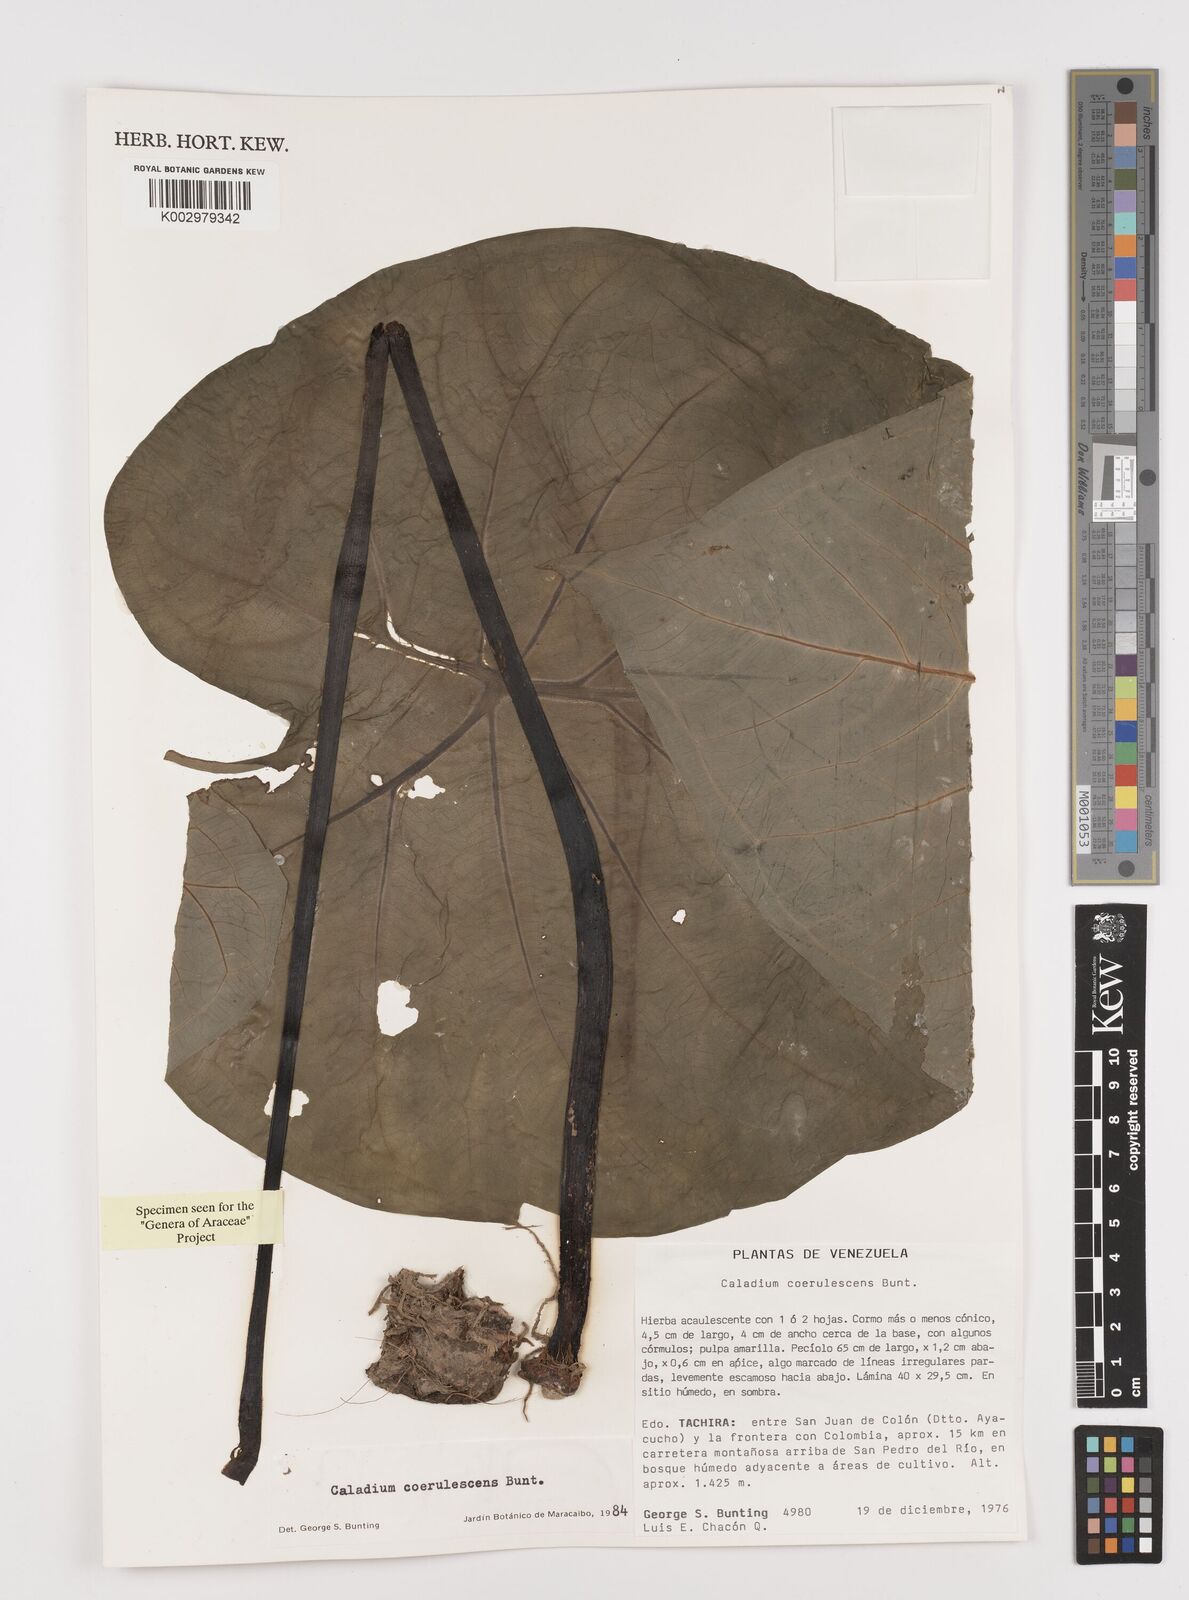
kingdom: Plantae
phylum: Tracheophyta
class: Liliopsida
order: Alismatales
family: Araceae
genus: Caladium
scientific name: Caladium coerulescens
